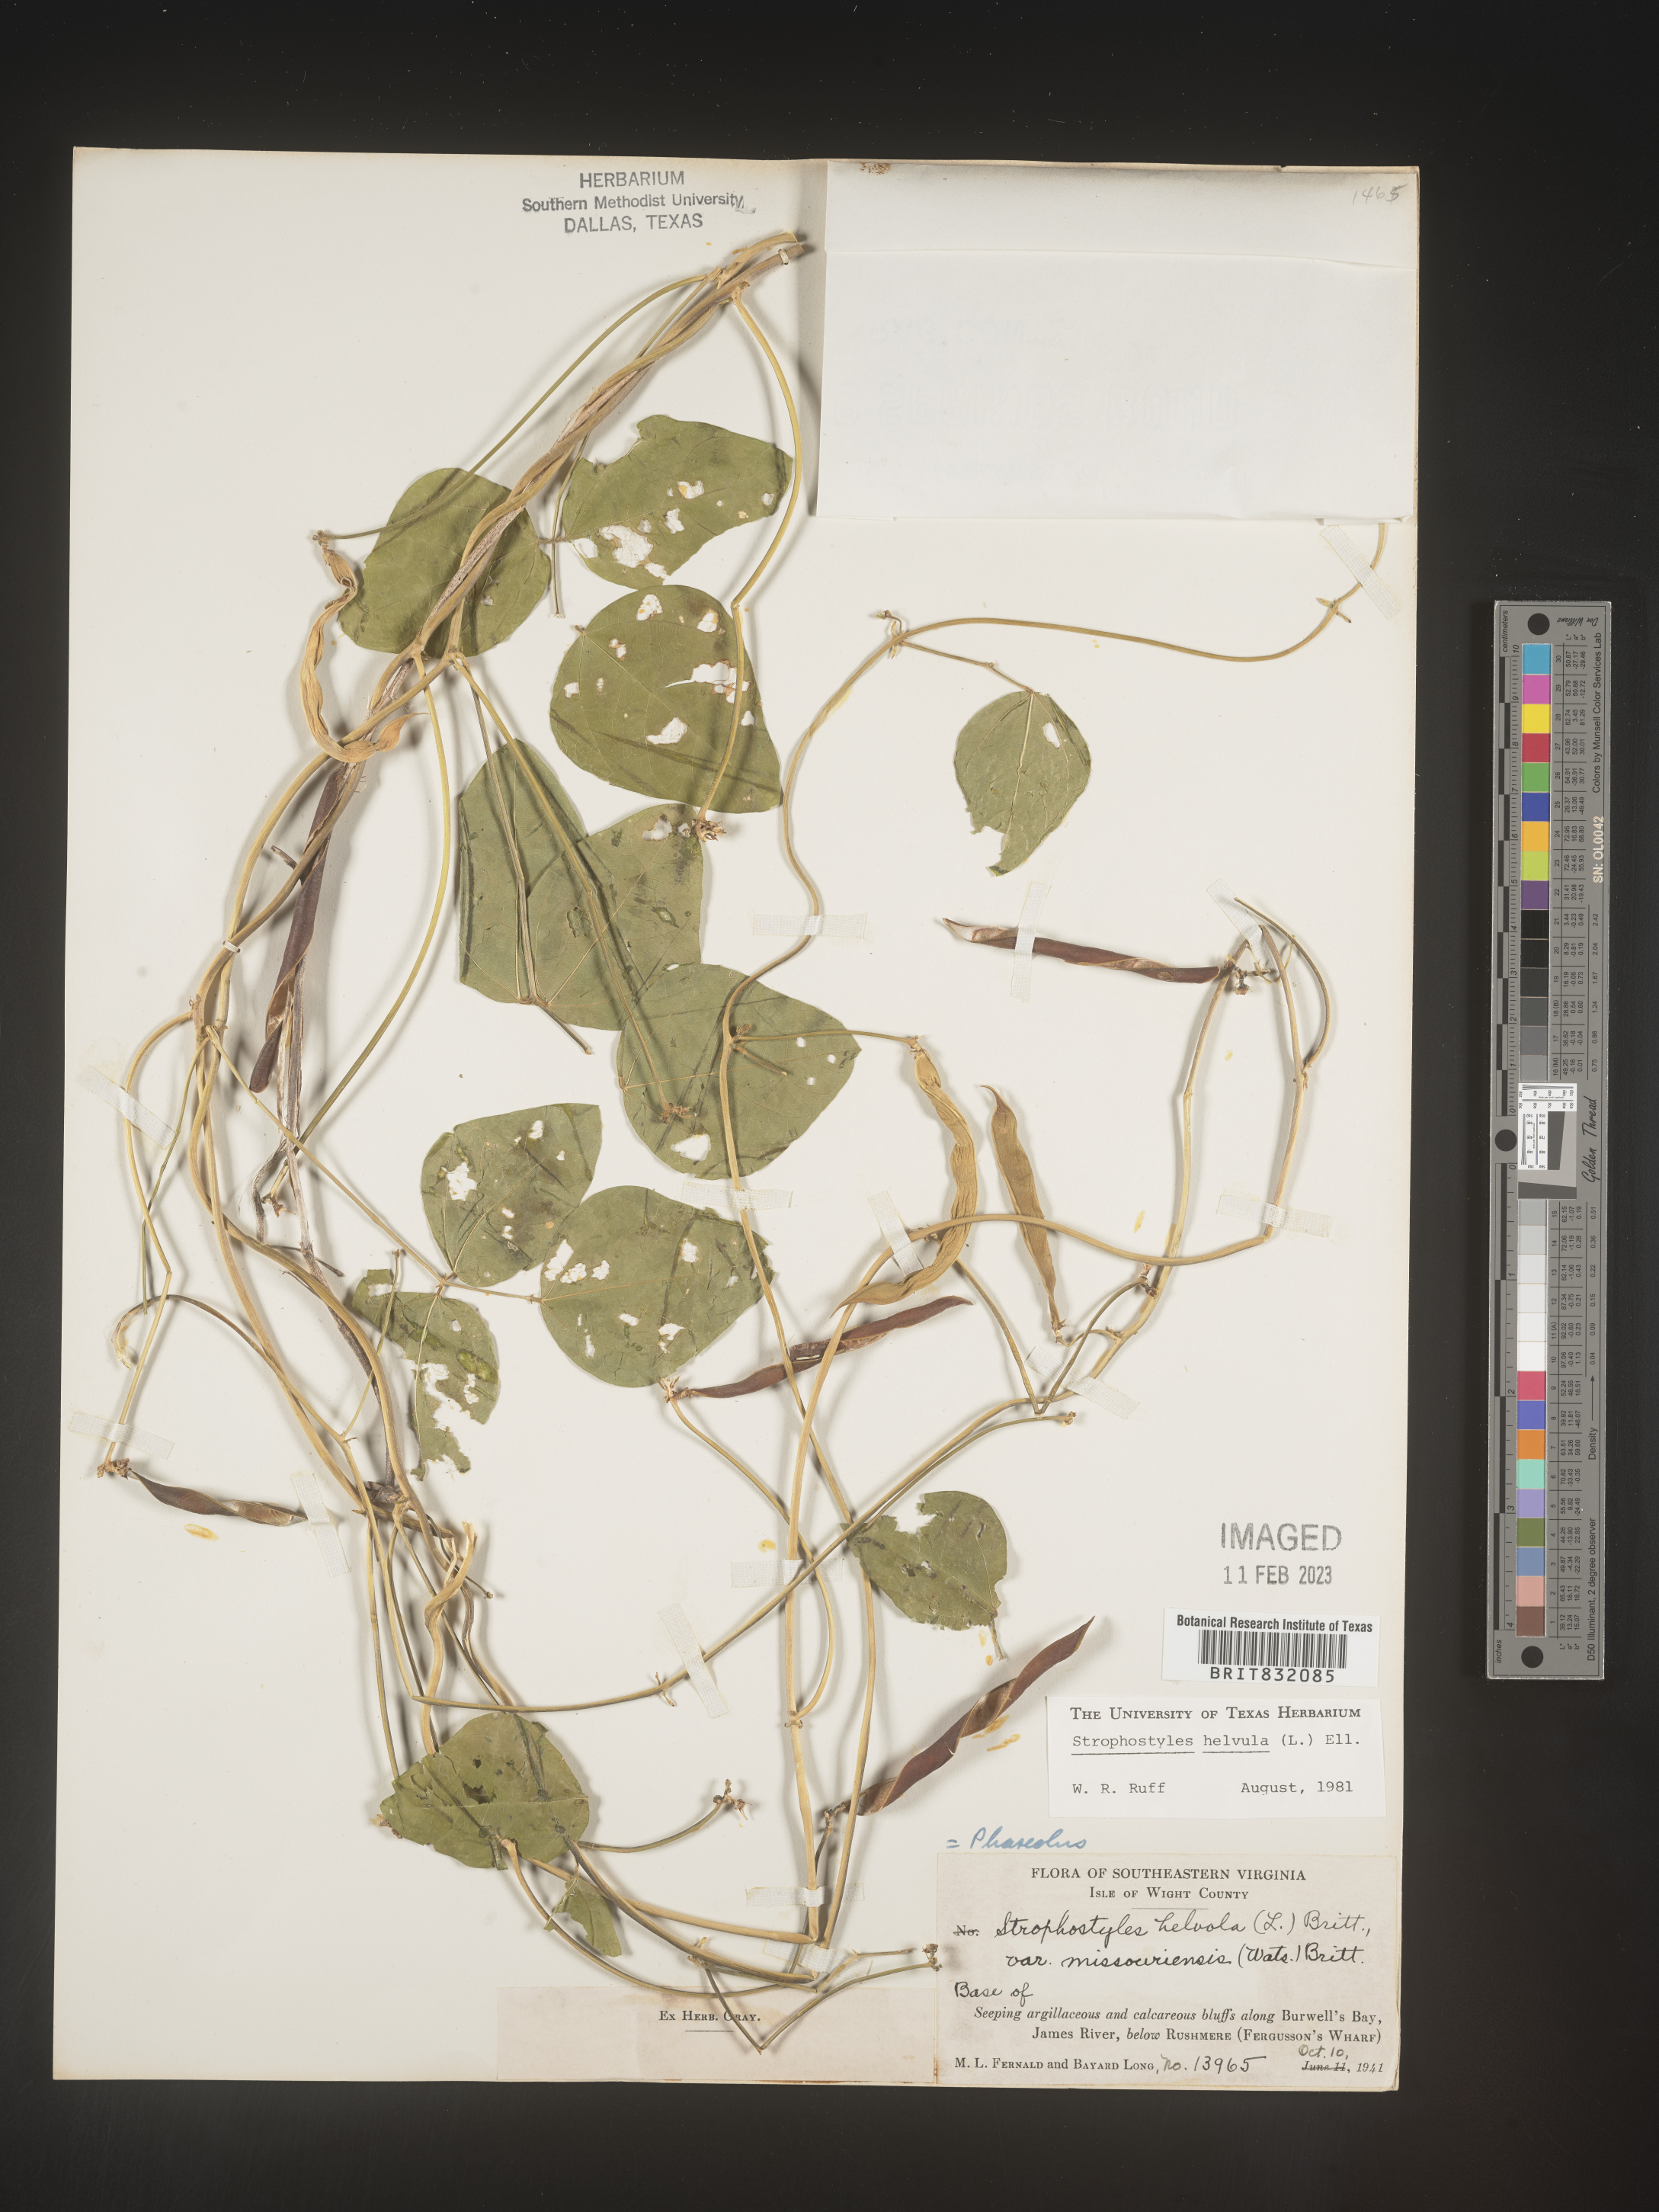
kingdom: Plantae
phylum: Tracheophyta
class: Magnoliopsida
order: Fabales
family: Fabaceae
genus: Strophostyles
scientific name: Strophostyles helvola
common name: Trailing wild bean
